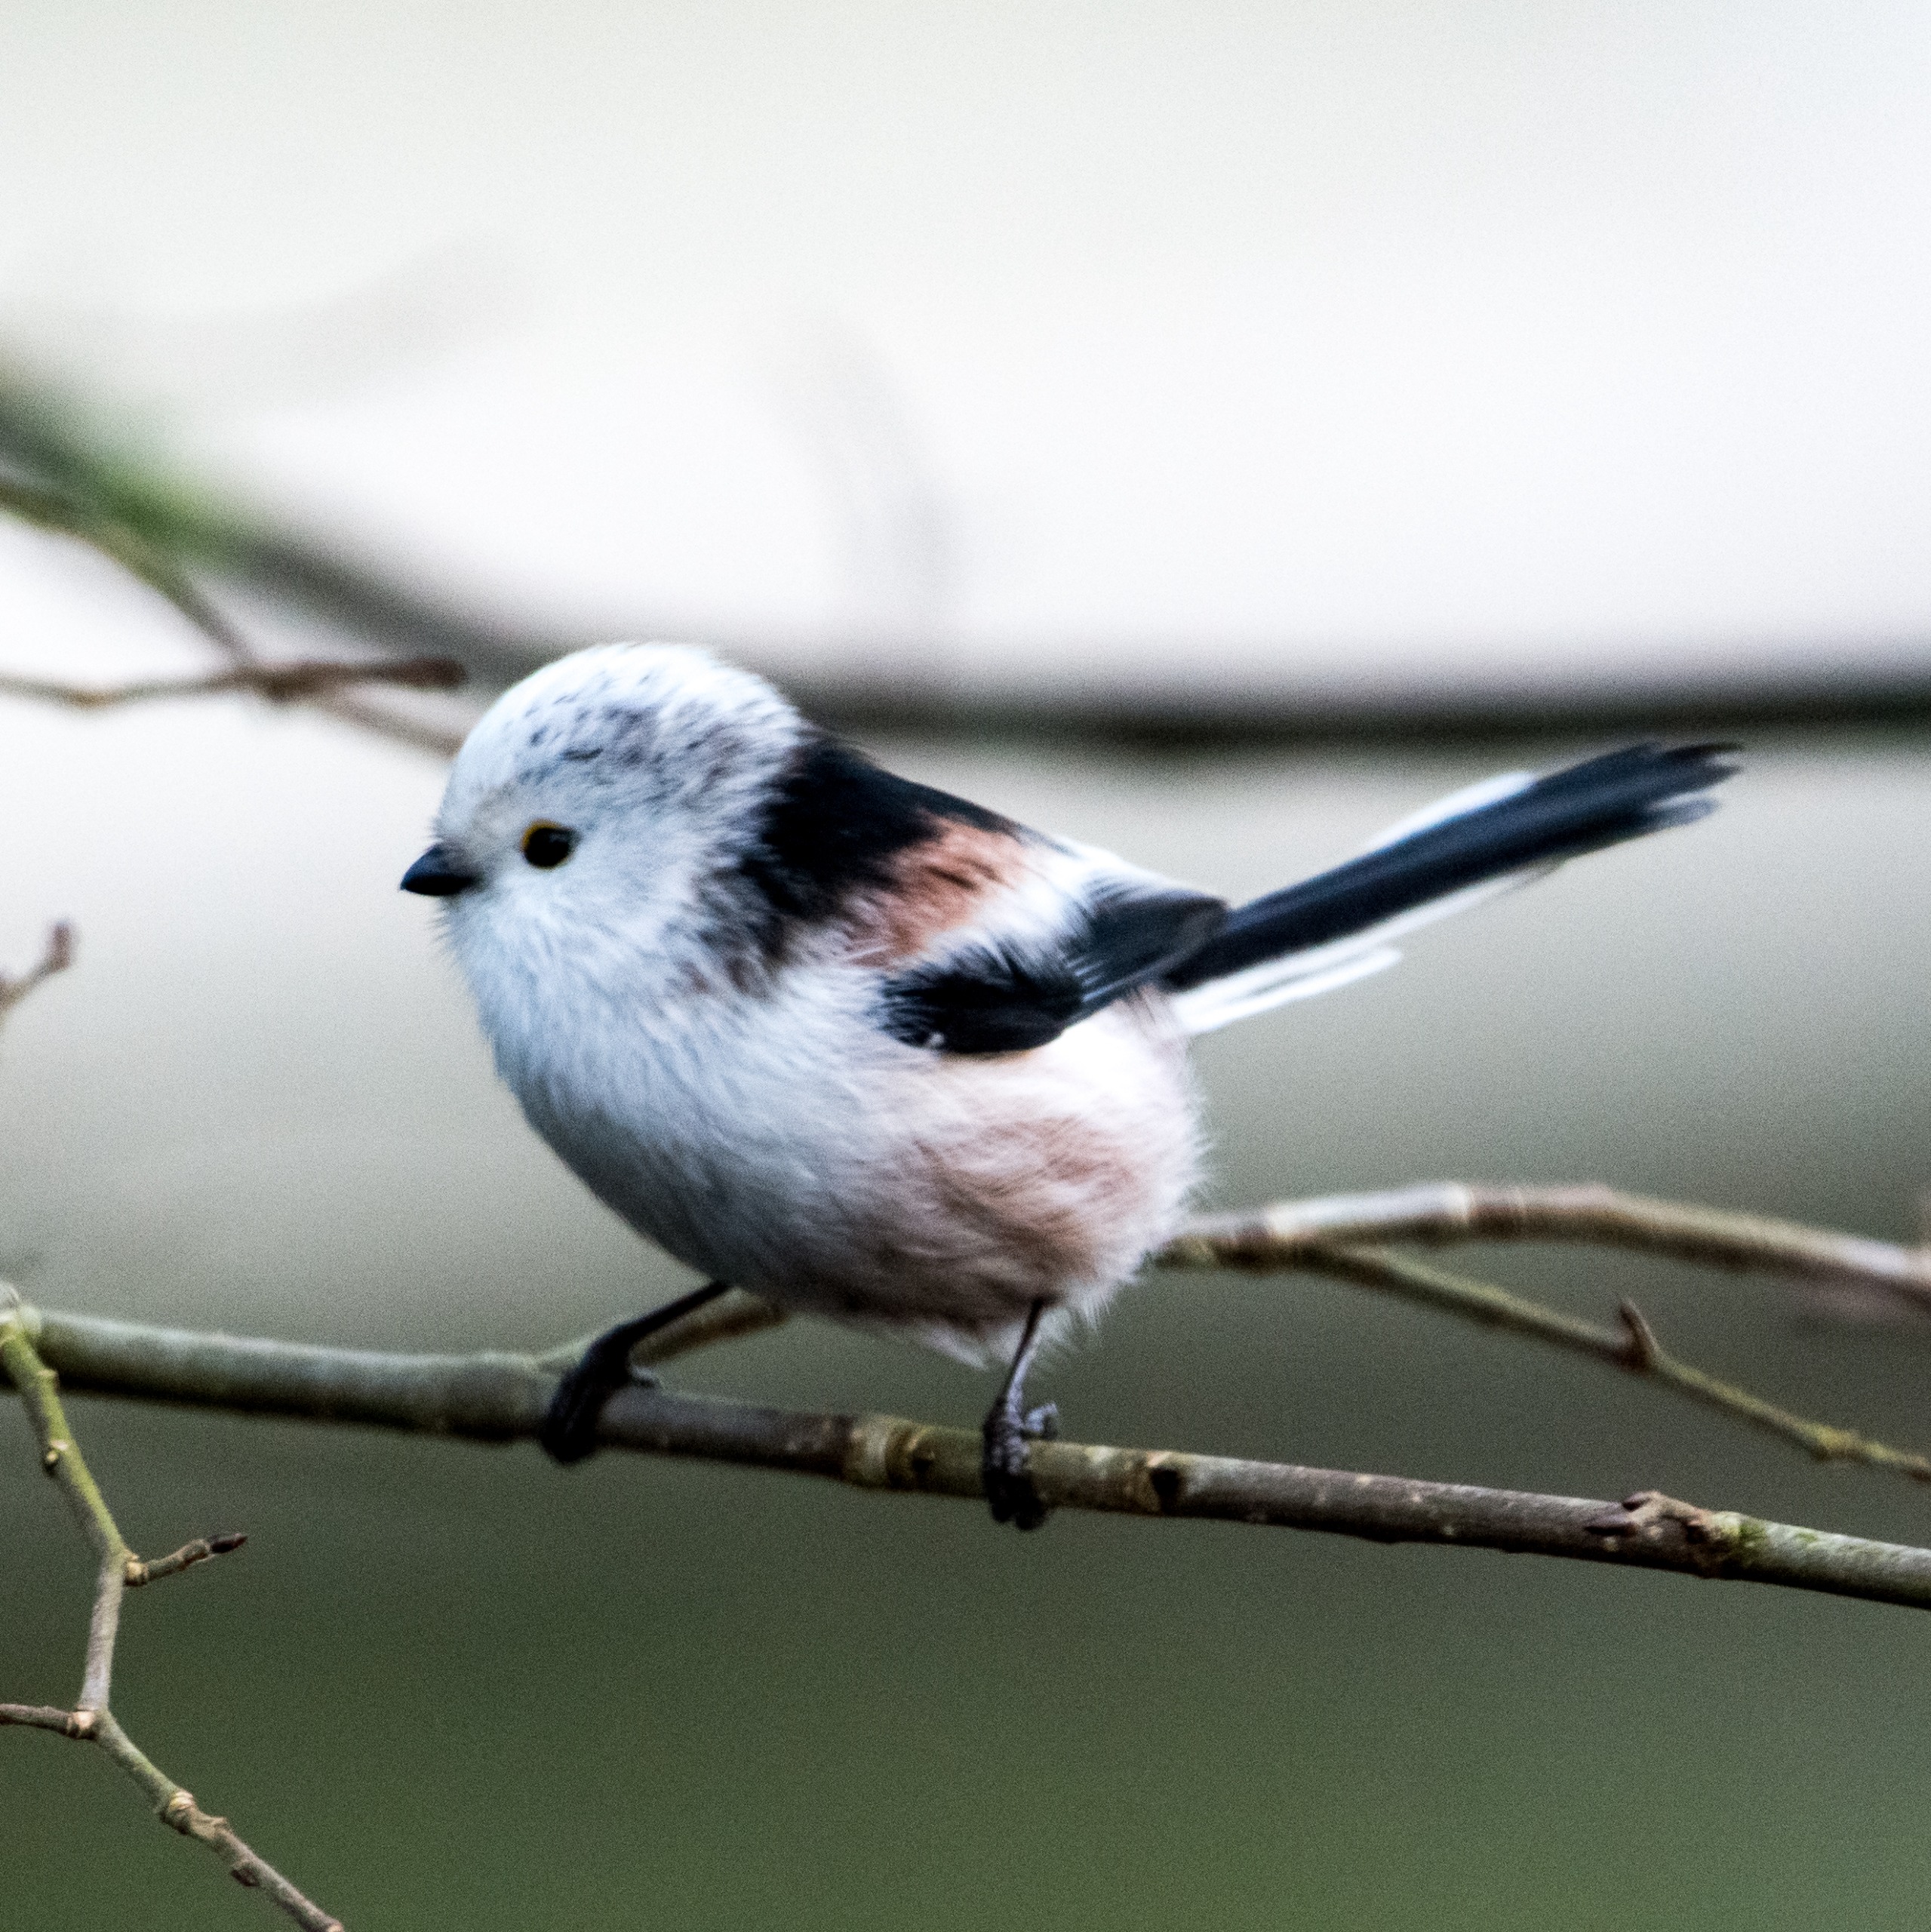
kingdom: Animalia
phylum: Chordata
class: Aves
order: Passeriformes
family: Aegithalidae
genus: Aegithalos
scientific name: Aegithalos caudatus
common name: Halemejse
